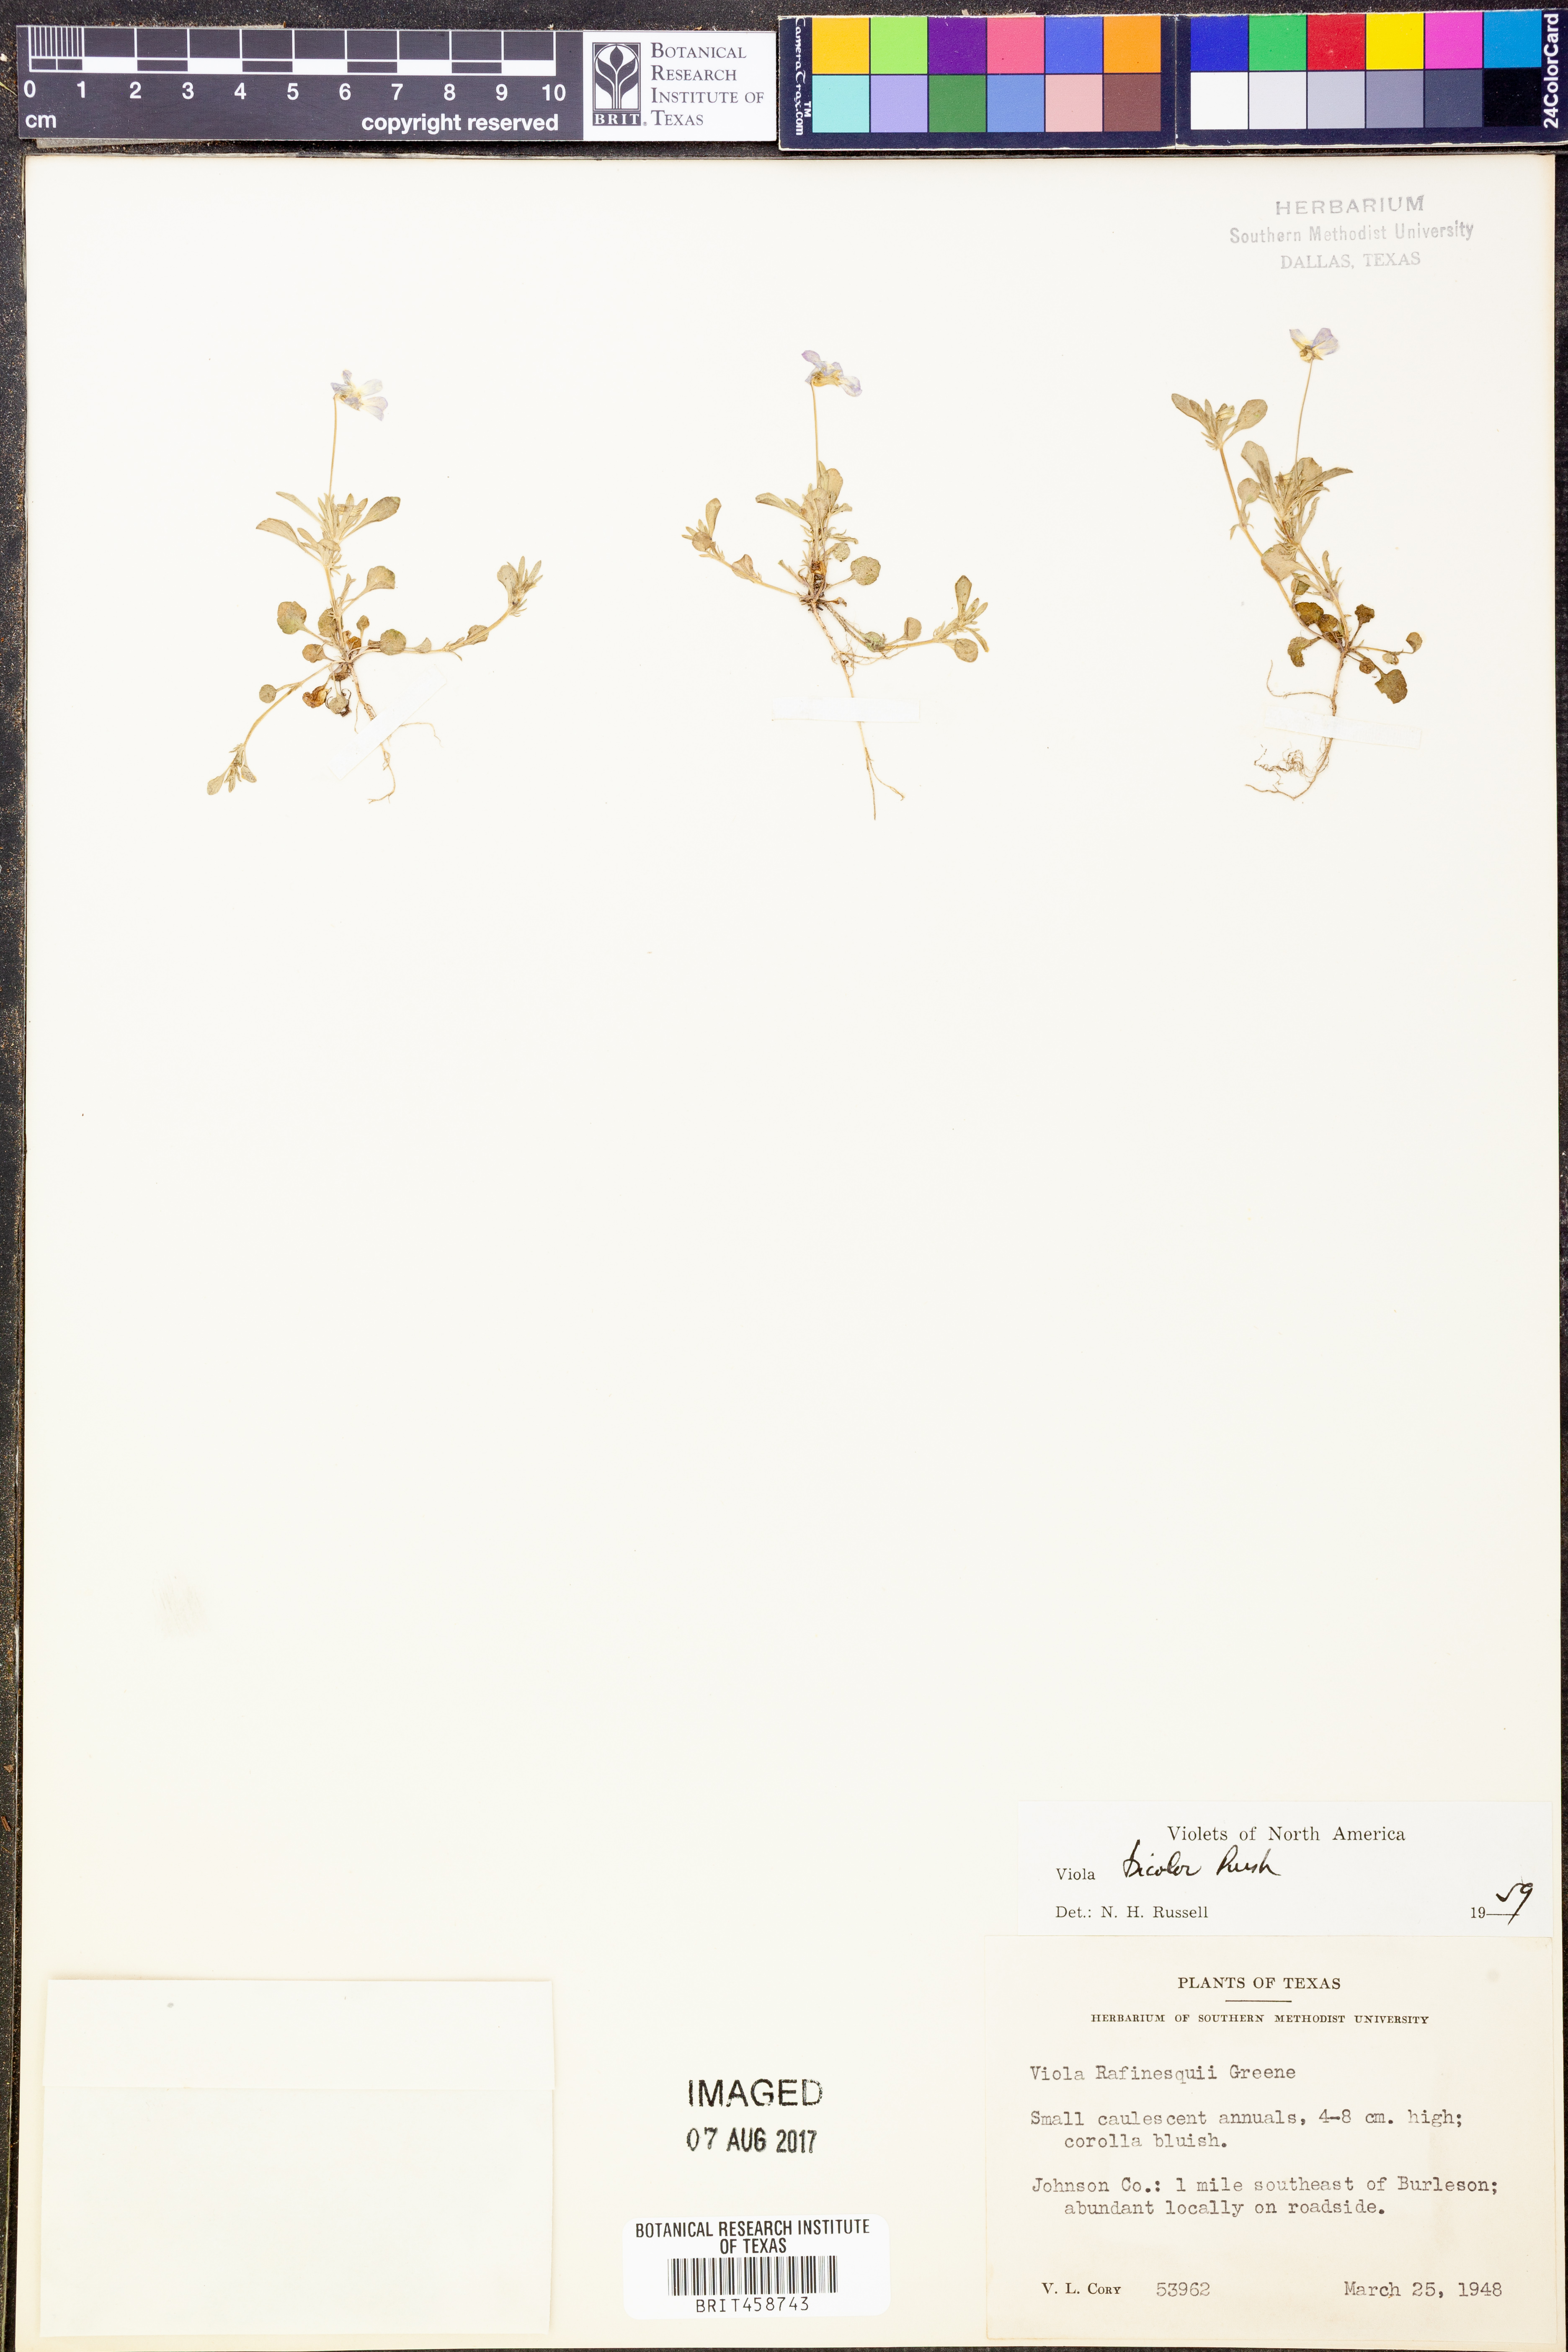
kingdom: Plantae
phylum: Tracheophyta
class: Magnoliopsida
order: Malpighiales
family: Violaceae
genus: Viola
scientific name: Viola rafinesquei
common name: American field pansy
